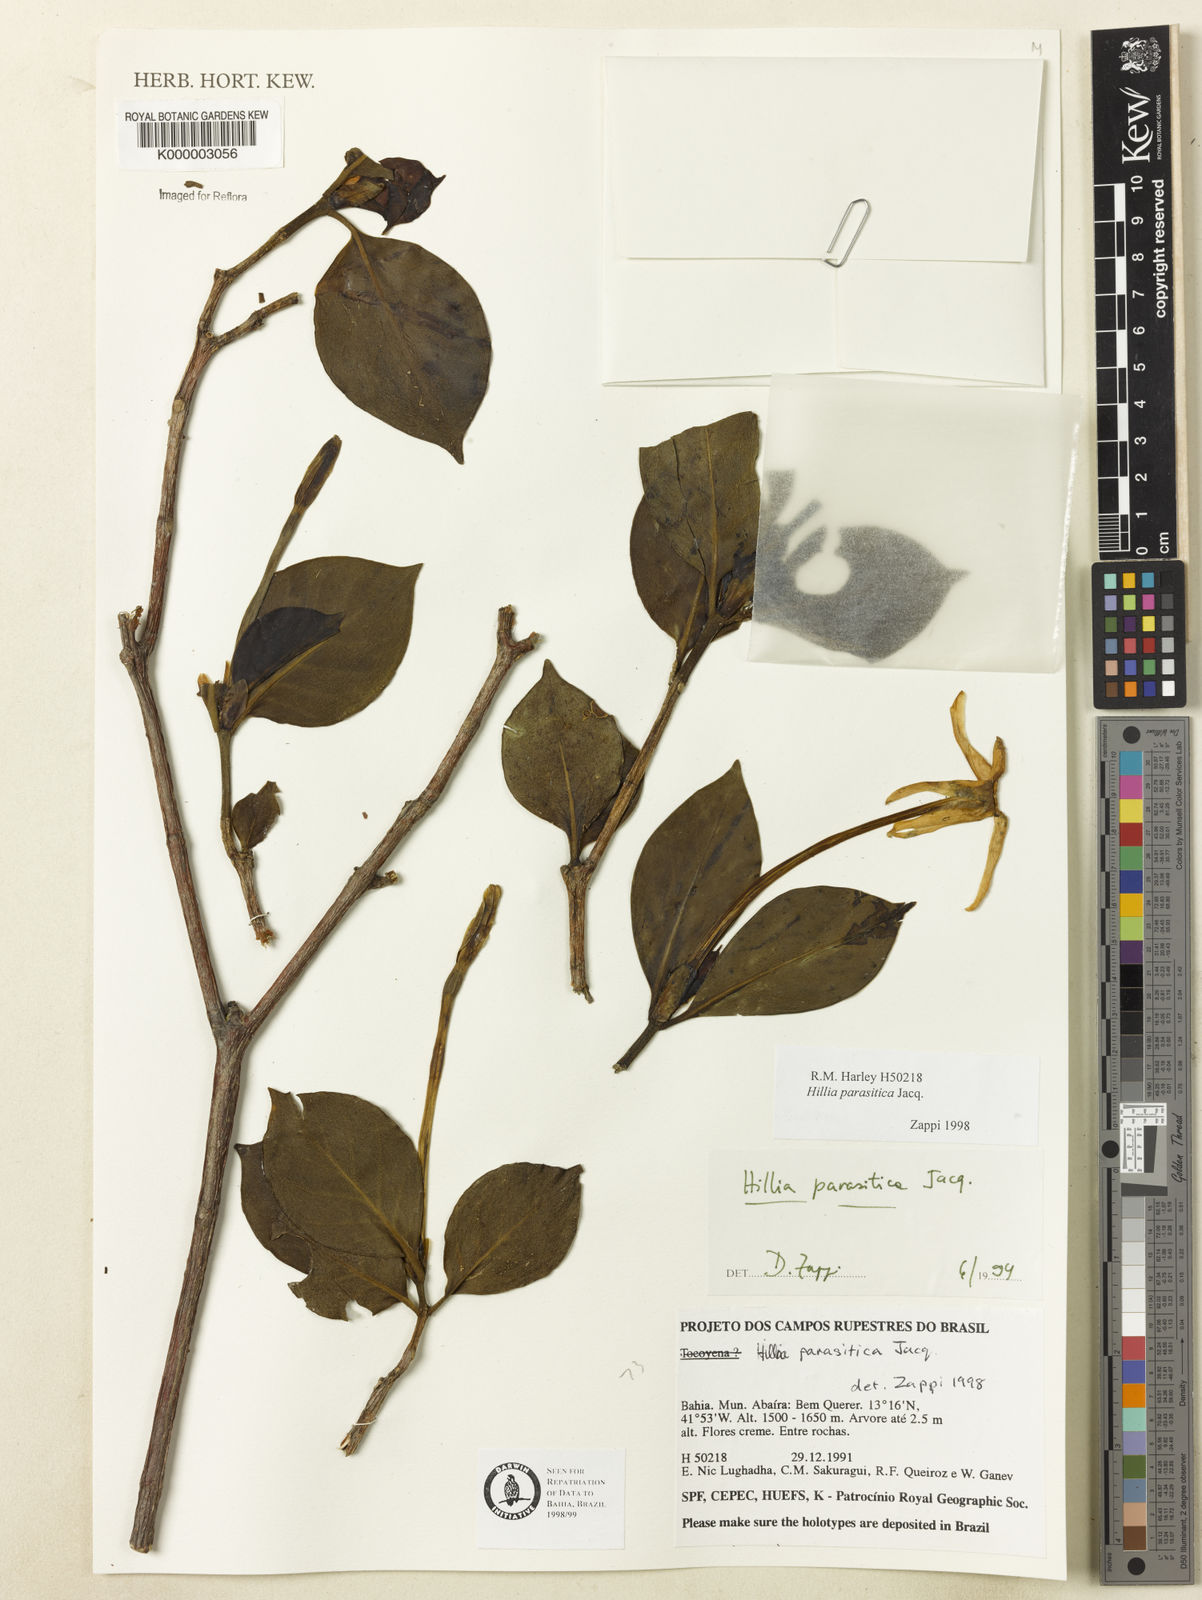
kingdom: Plantae
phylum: Tracheophyta
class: Magnoliopsida
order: Gentianales
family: Rubiaceae
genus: Hillia
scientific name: Hillia parasitica
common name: Morning star
